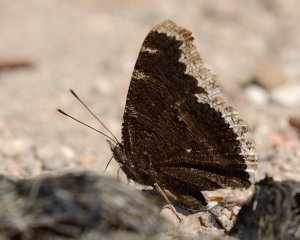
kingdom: Animalia
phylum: Arthropoda
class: Insecta
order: Lepidoptera
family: Nymphalidae
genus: Nymphalis
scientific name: Nymphalis antiopa
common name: Mourning Cloak
